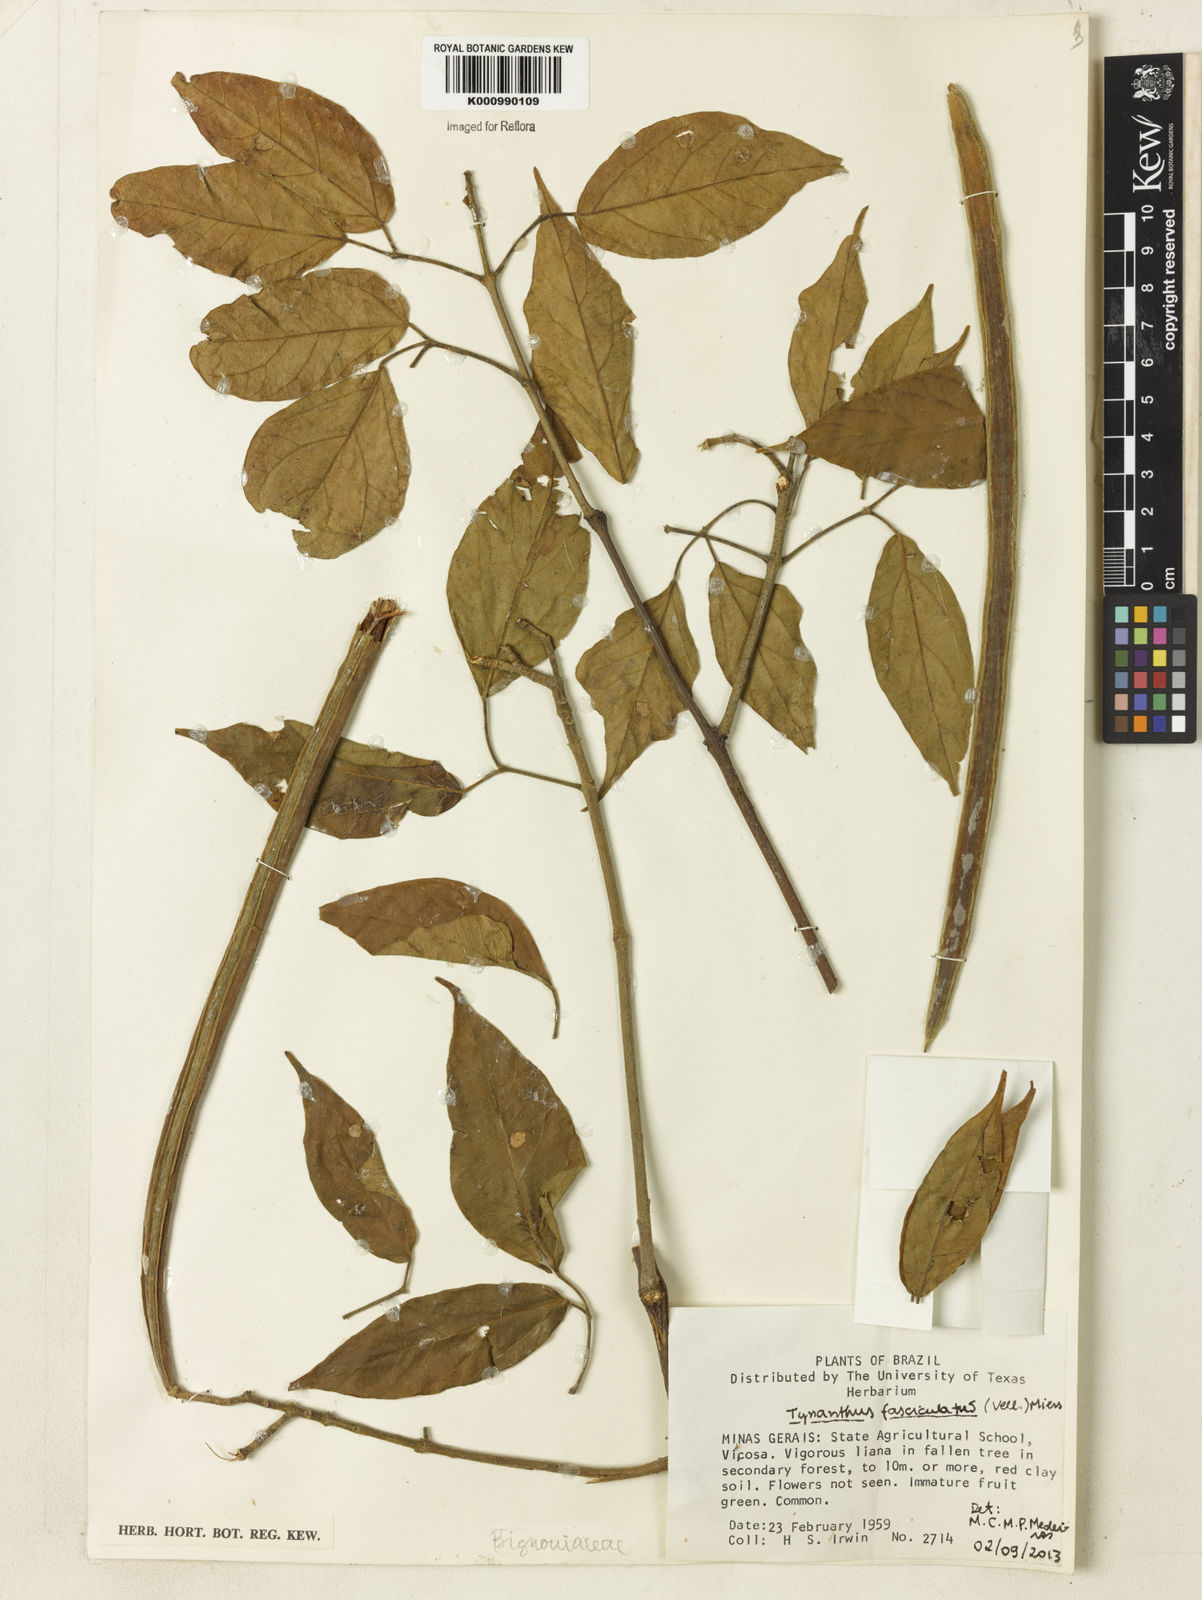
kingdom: Plantae
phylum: Tracheophyta
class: Magnoliopsida
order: Lamiales
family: Bignoniaceae
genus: Tynanthus
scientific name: Tynanthus fasciculatus
